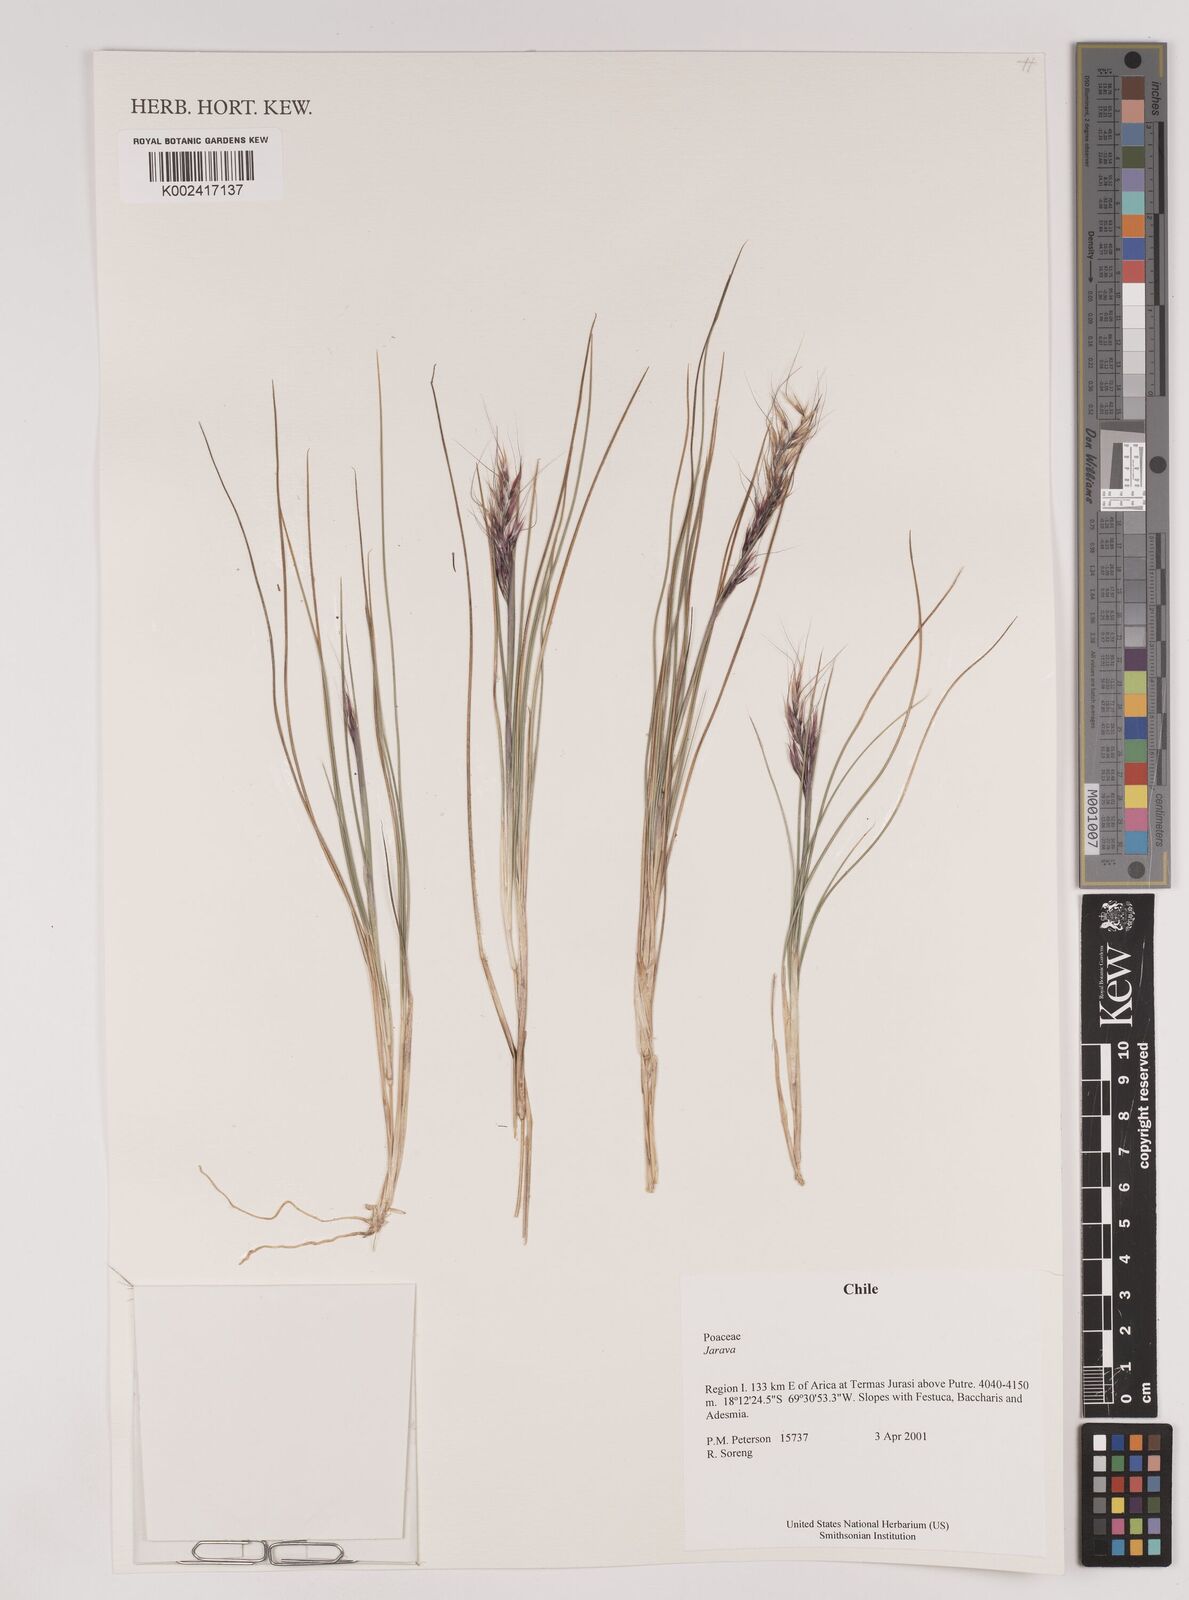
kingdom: Plantae
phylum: Tracheophyta
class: Liliopsida
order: Poales
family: Poaceae
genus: Stipa
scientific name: Stipa
